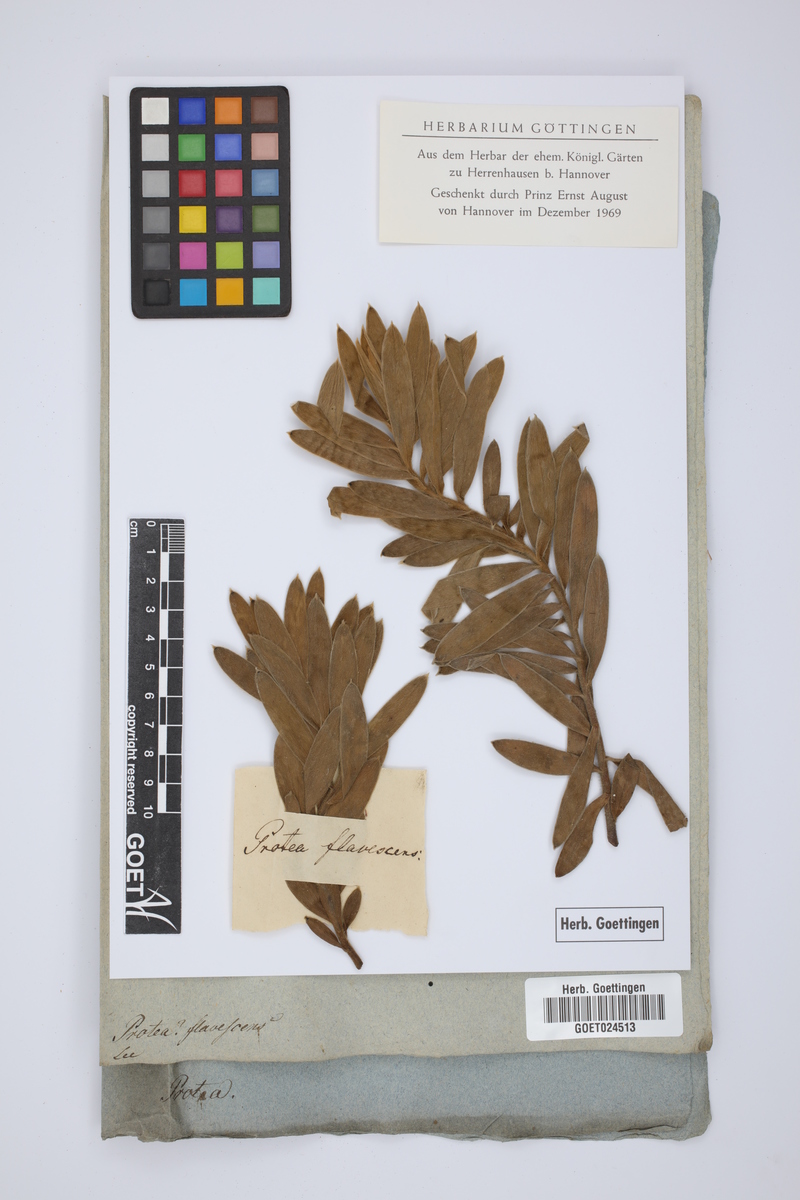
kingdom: Plantae
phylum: Tracheophyta
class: Magnoliopsida
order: Proteales
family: Proteaceae
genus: Leucadendron
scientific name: Leucadendron flavescens
